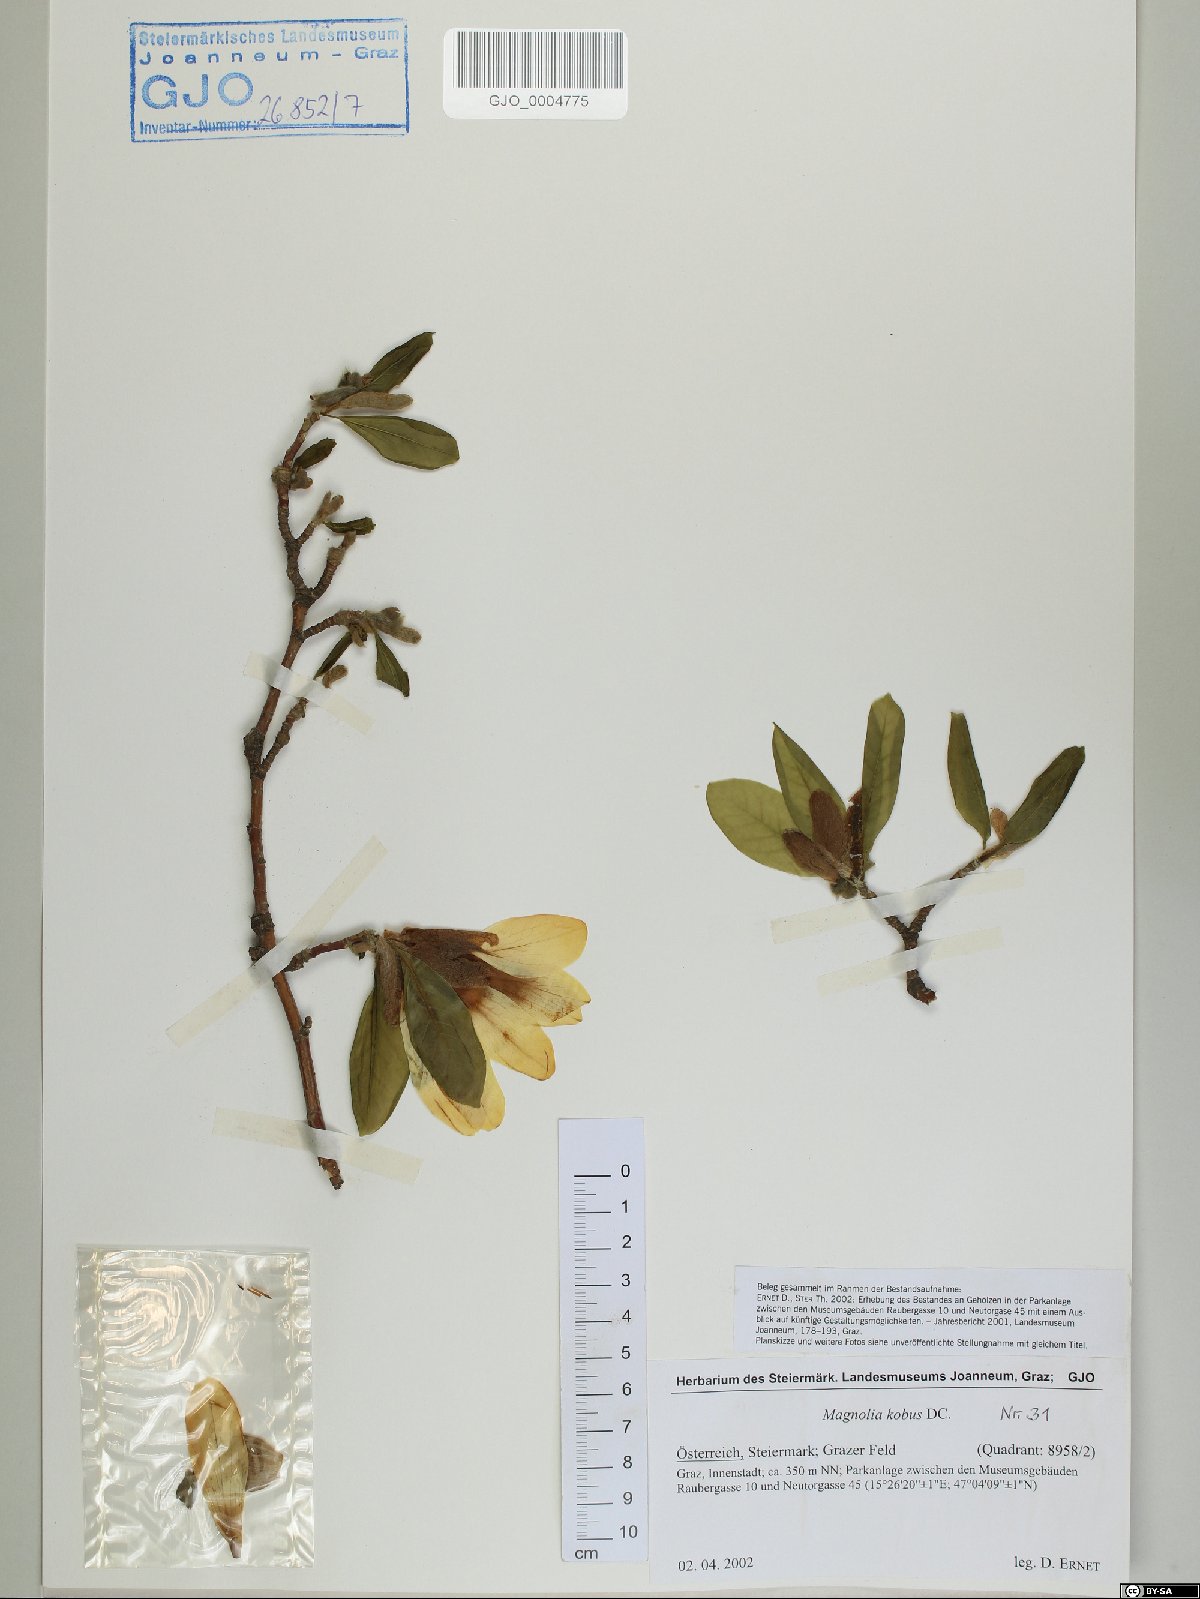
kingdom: Plantae
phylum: Tracheophyta
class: Magnoliopsida
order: Magnoliales
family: Magnoliaceae
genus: Magnolia
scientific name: Magnolia kobus
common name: Kobus magnolia
